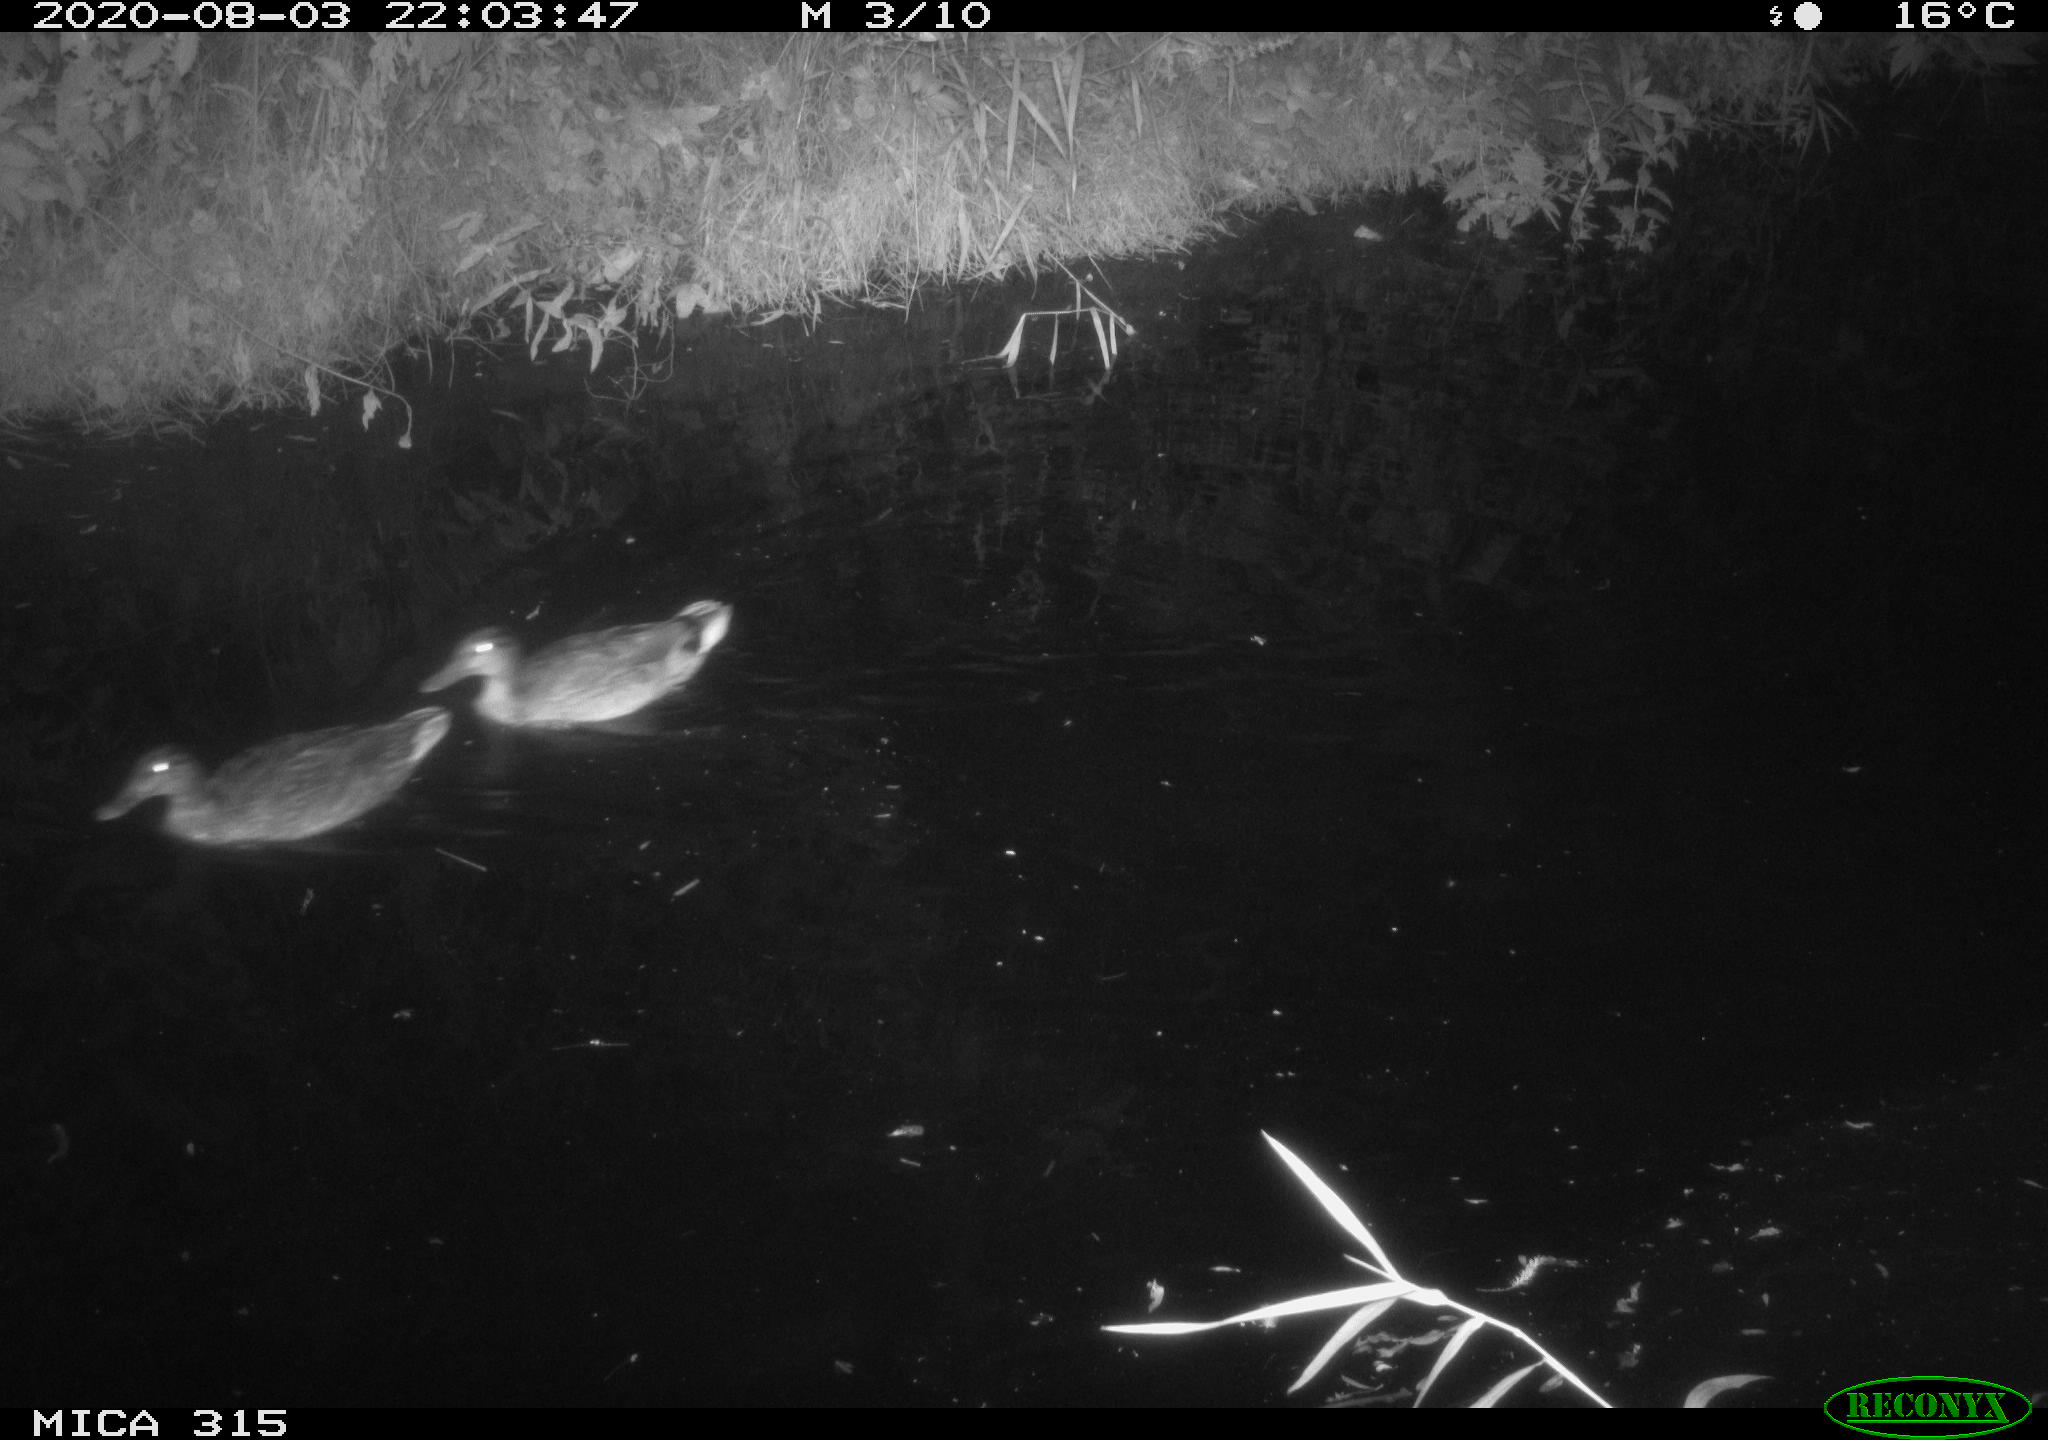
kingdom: Animalia
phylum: Chordata
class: Aves
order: Anseriformes
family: Anatidae
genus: Anas
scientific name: Anas platyrhynchos
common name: Mallard
